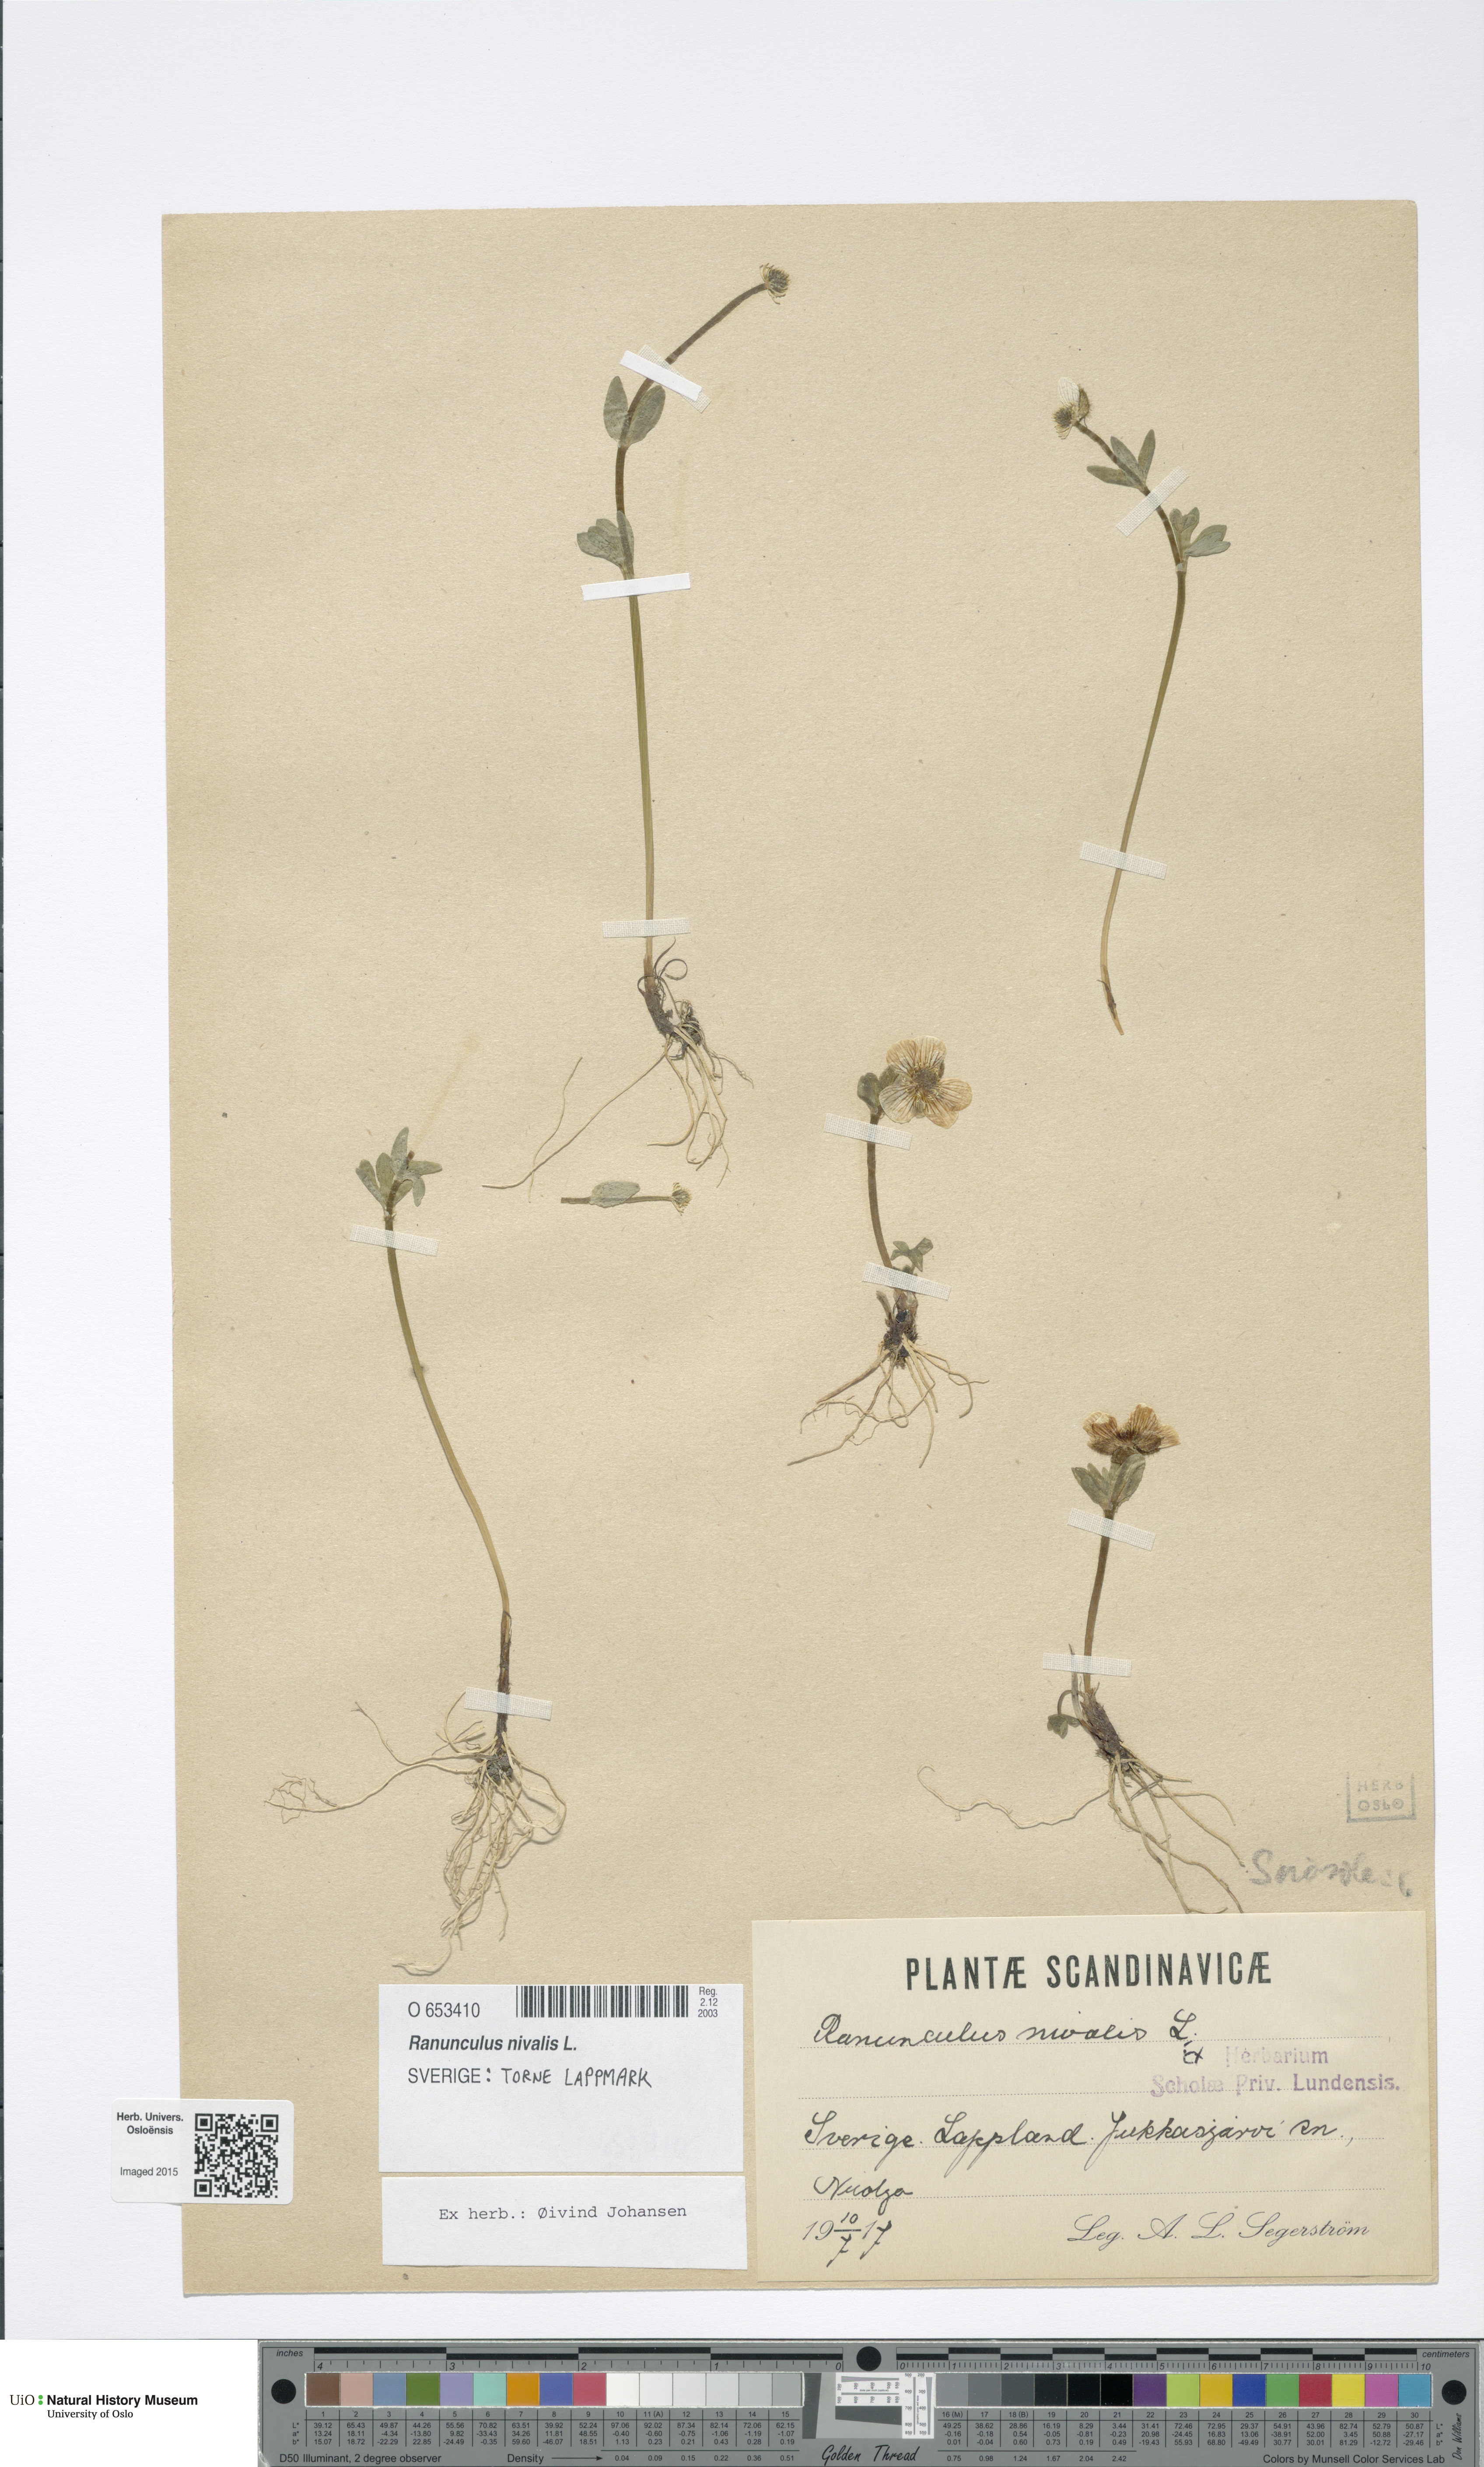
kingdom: Plantae
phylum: Tracheophyta
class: Magnoliopsida
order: Ranunculales
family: Ranunculaceae
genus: Ranunculus
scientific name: Ranunculus nivalis
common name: Snow buttercup
